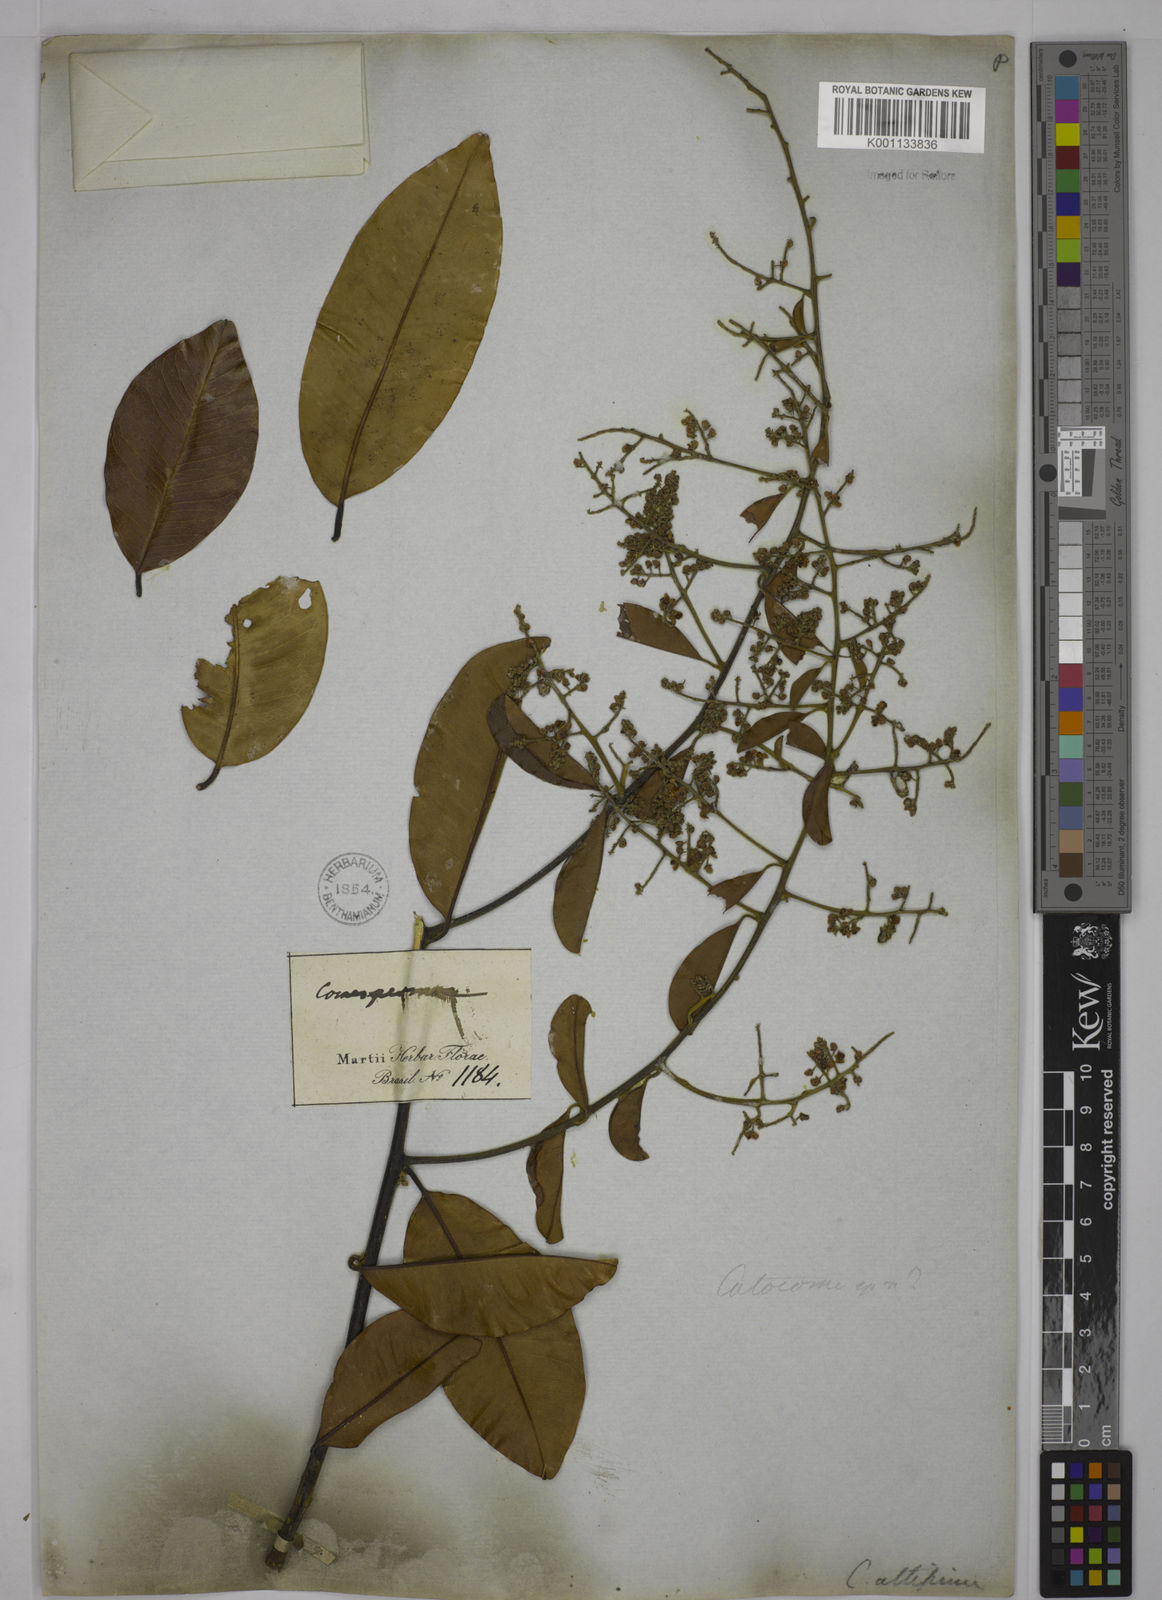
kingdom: Plantae
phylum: Tracheophyta
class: Magnoliopsida
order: Fabales
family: Polygalaceae
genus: Bredemeyera
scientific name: Bredemeyera divaricata
